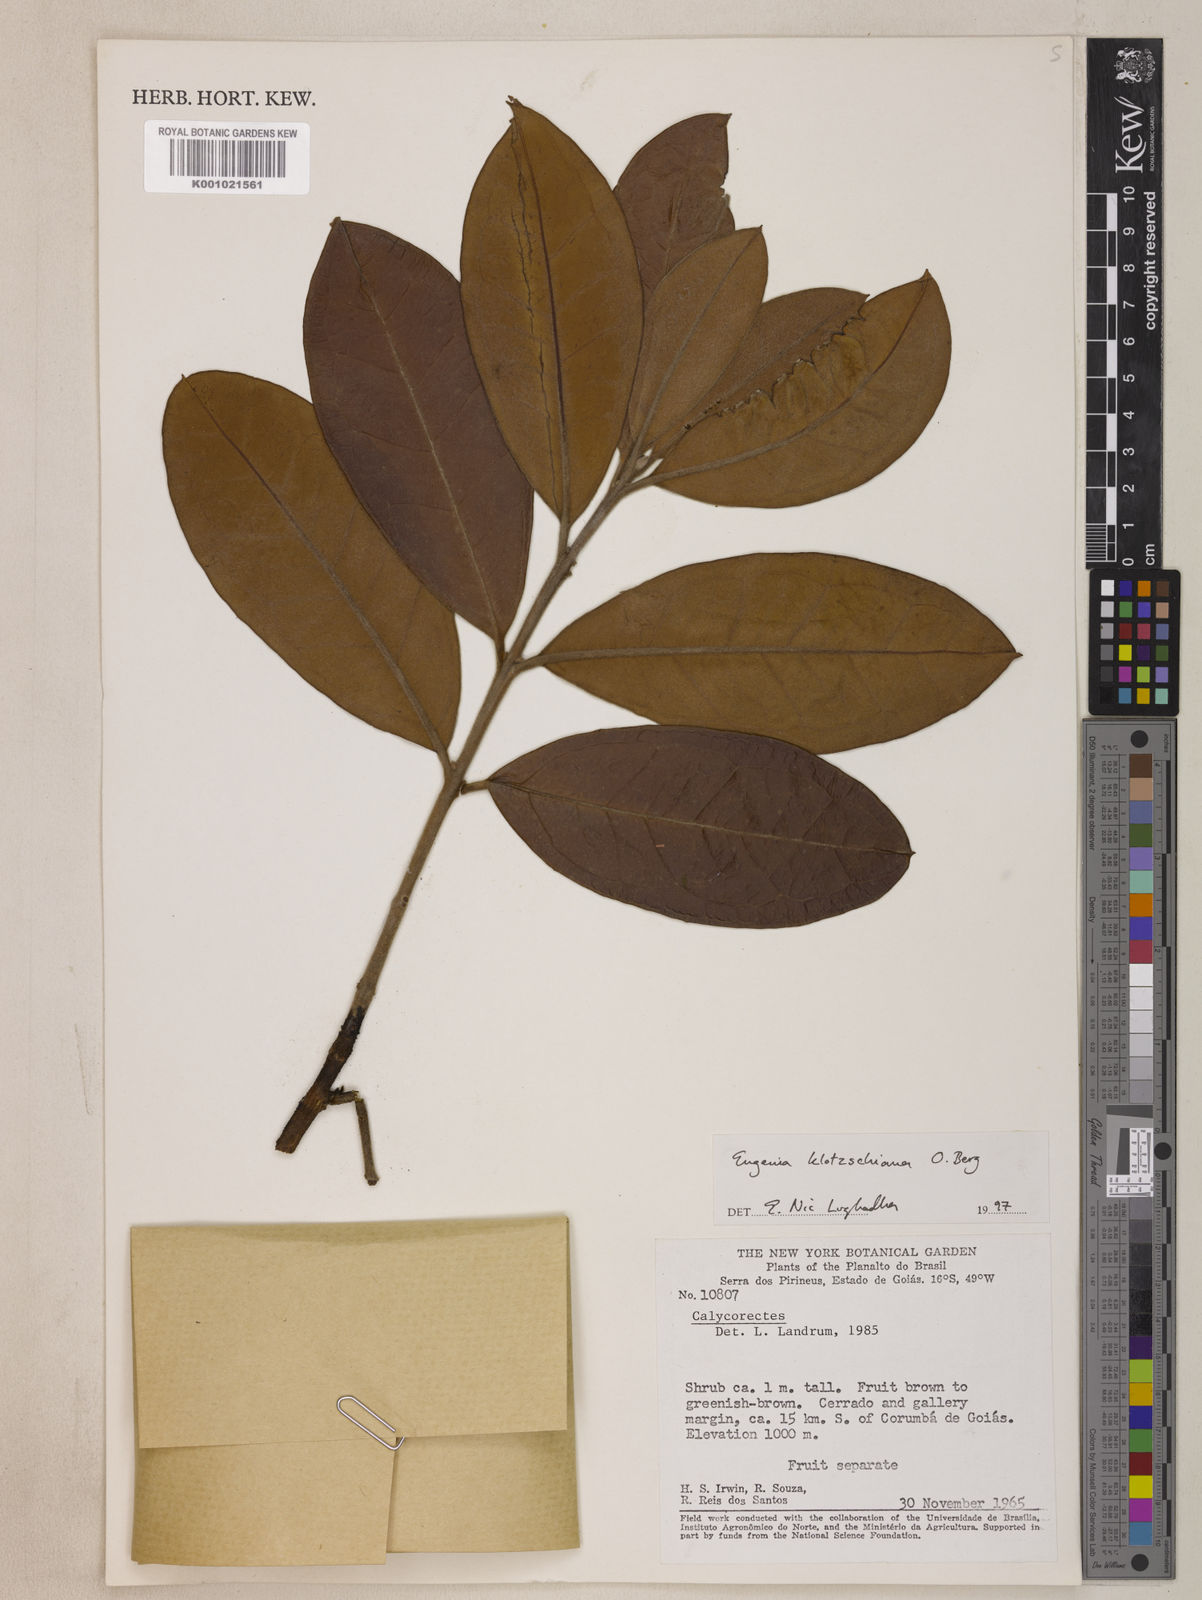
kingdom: Plantae
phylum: Tracheophyta
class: Magnoliopsida
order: Myrtales
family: Myrtaceae
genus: Eugenia
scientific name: Eugenia klotzschiana
